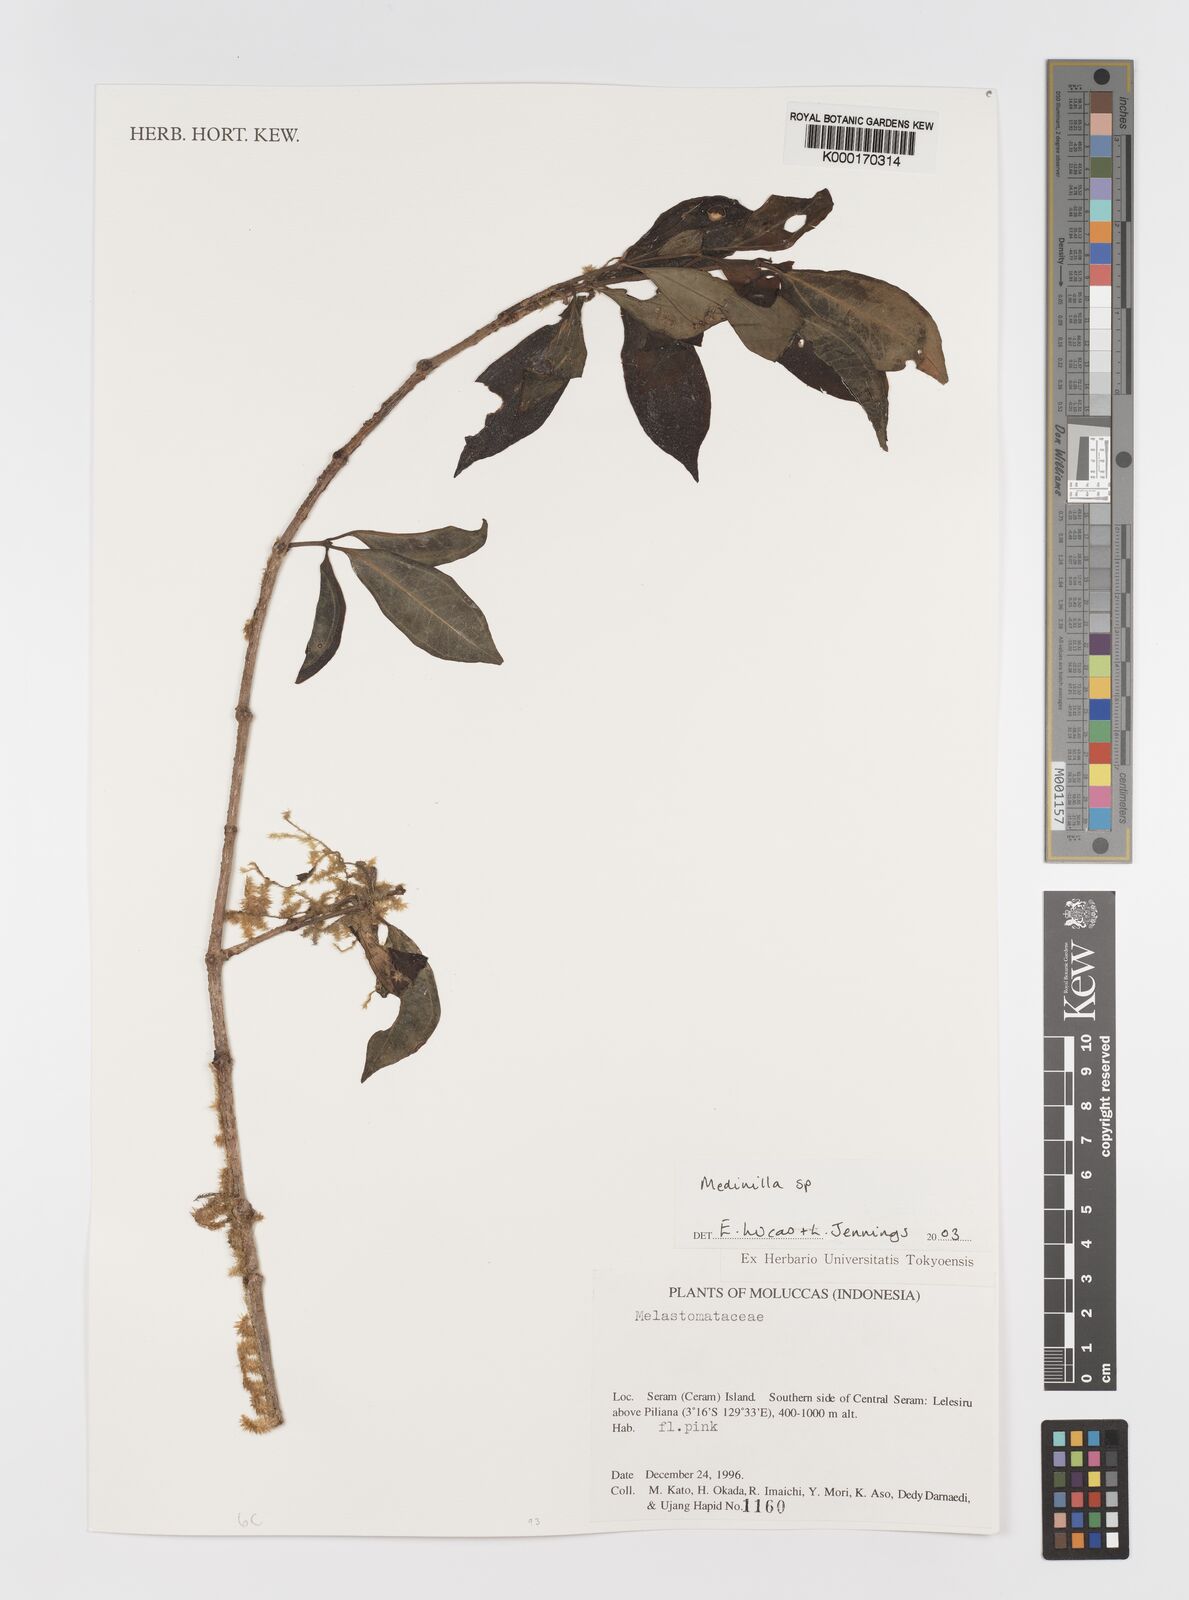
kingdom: Plantae
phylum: Tracheophyta
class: Magnoliopsida
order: Myrtales
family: Melastomataceae
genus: Medinilla
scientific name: Medinilla
